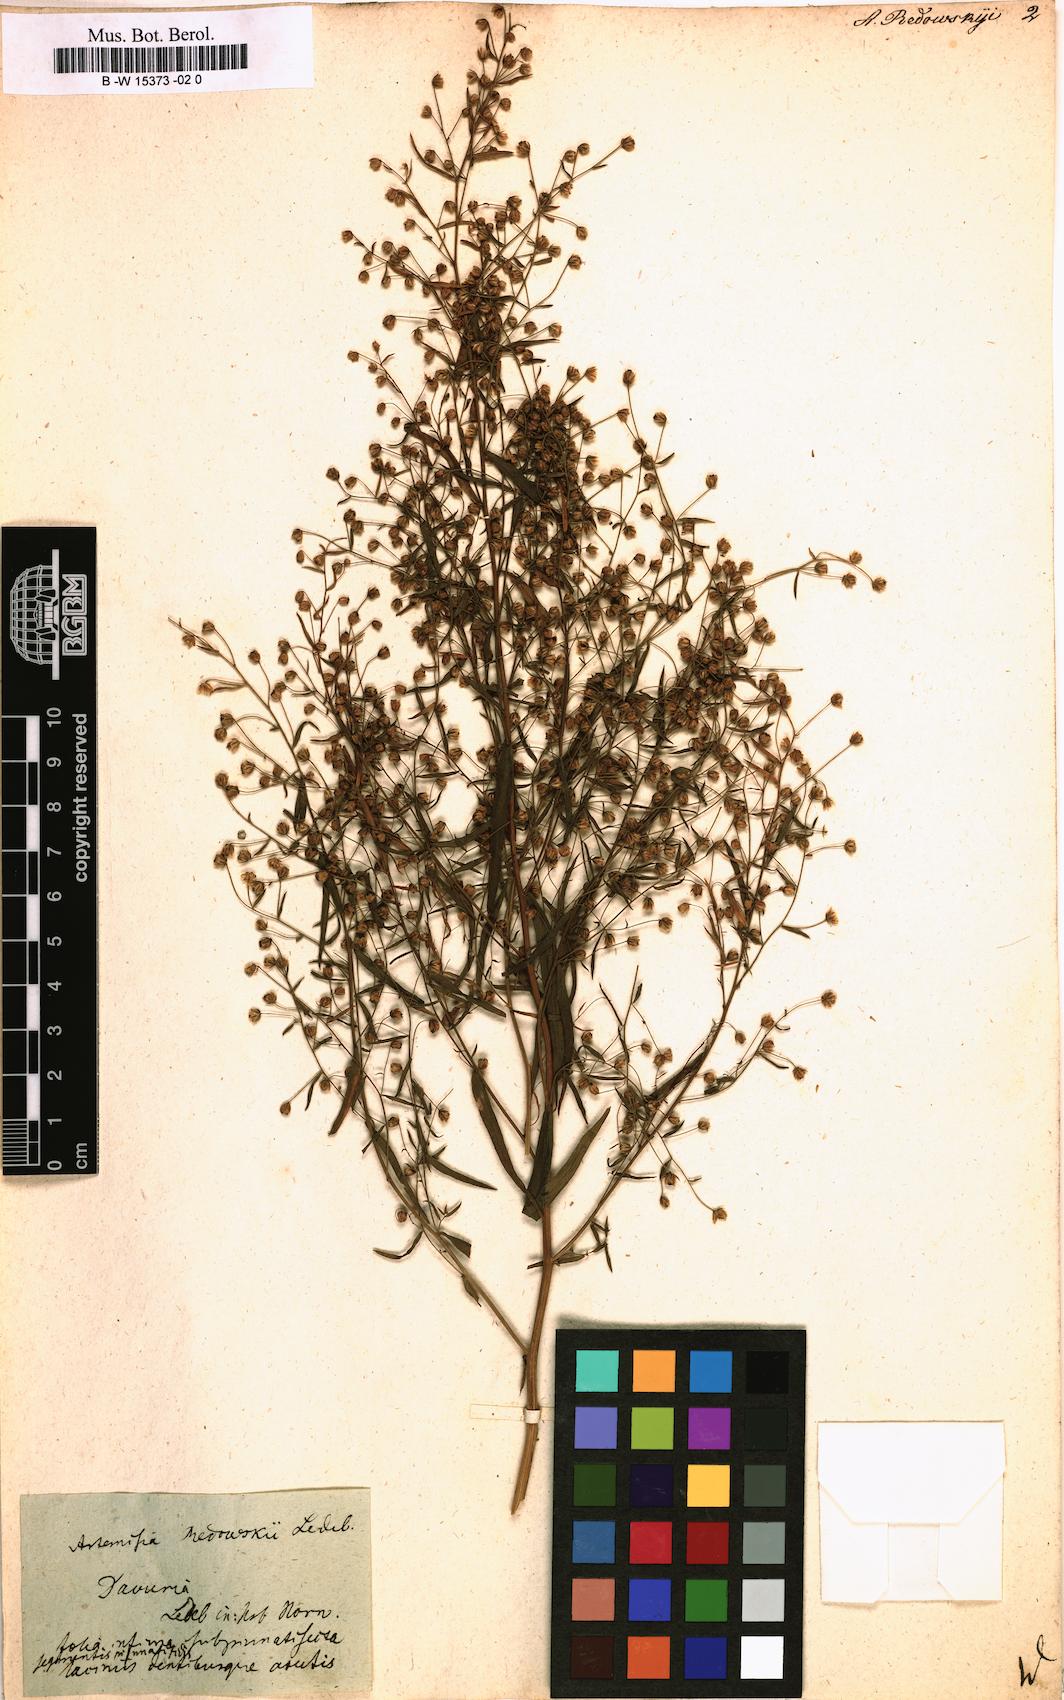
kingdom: Plantae
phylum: Tracheophyta
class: Magnoliopsida
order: Asterales
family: Asteraceae
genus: Artemisia
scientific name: Artemisia dracunculus
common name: Tarragon
